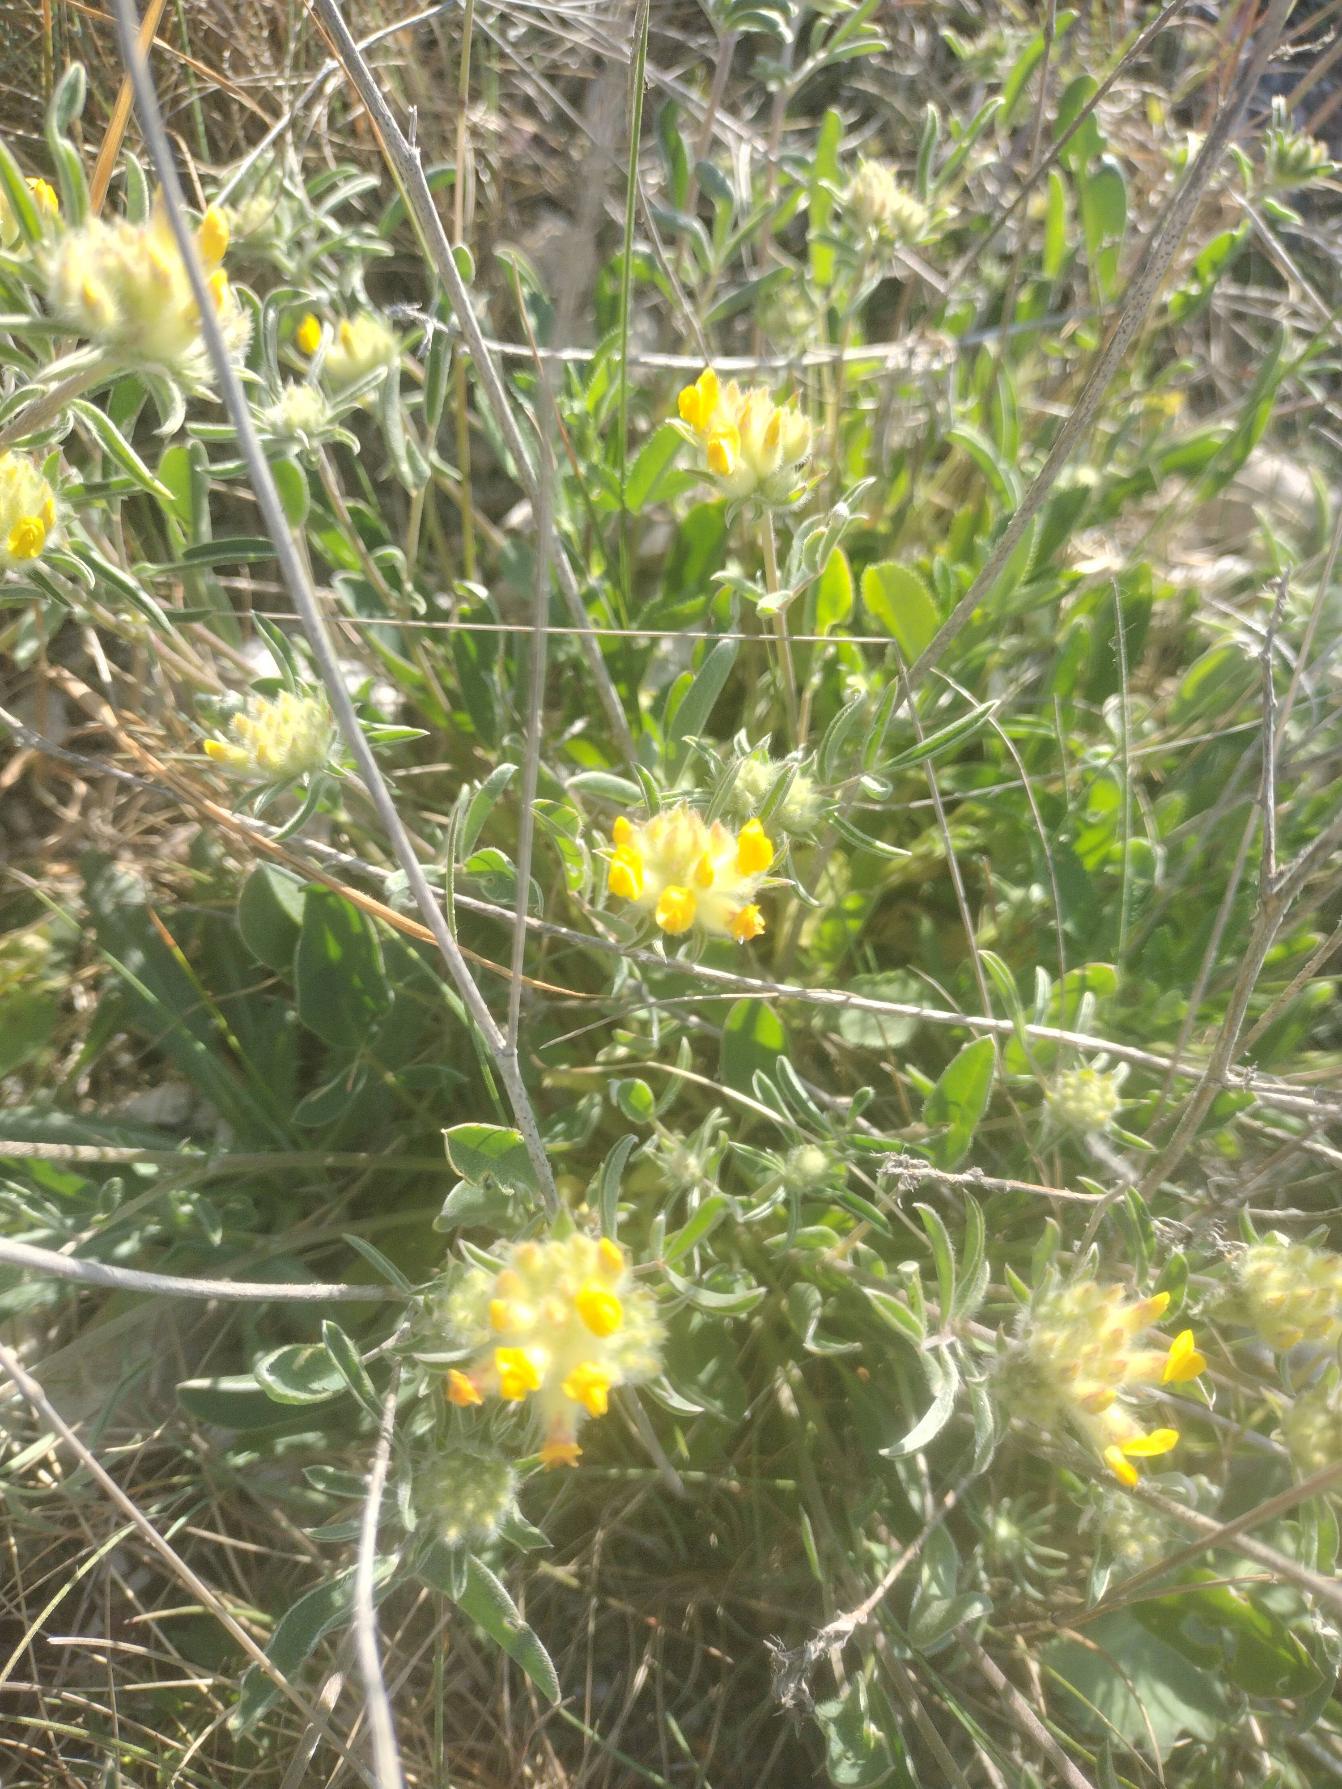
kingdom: Plantae
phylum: Tracheophyta
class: Magnoliopsida
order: Fabales
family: Fabaceae
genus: Anthyllis
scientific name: Anthyllis vulneraria
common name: Rundbælg
